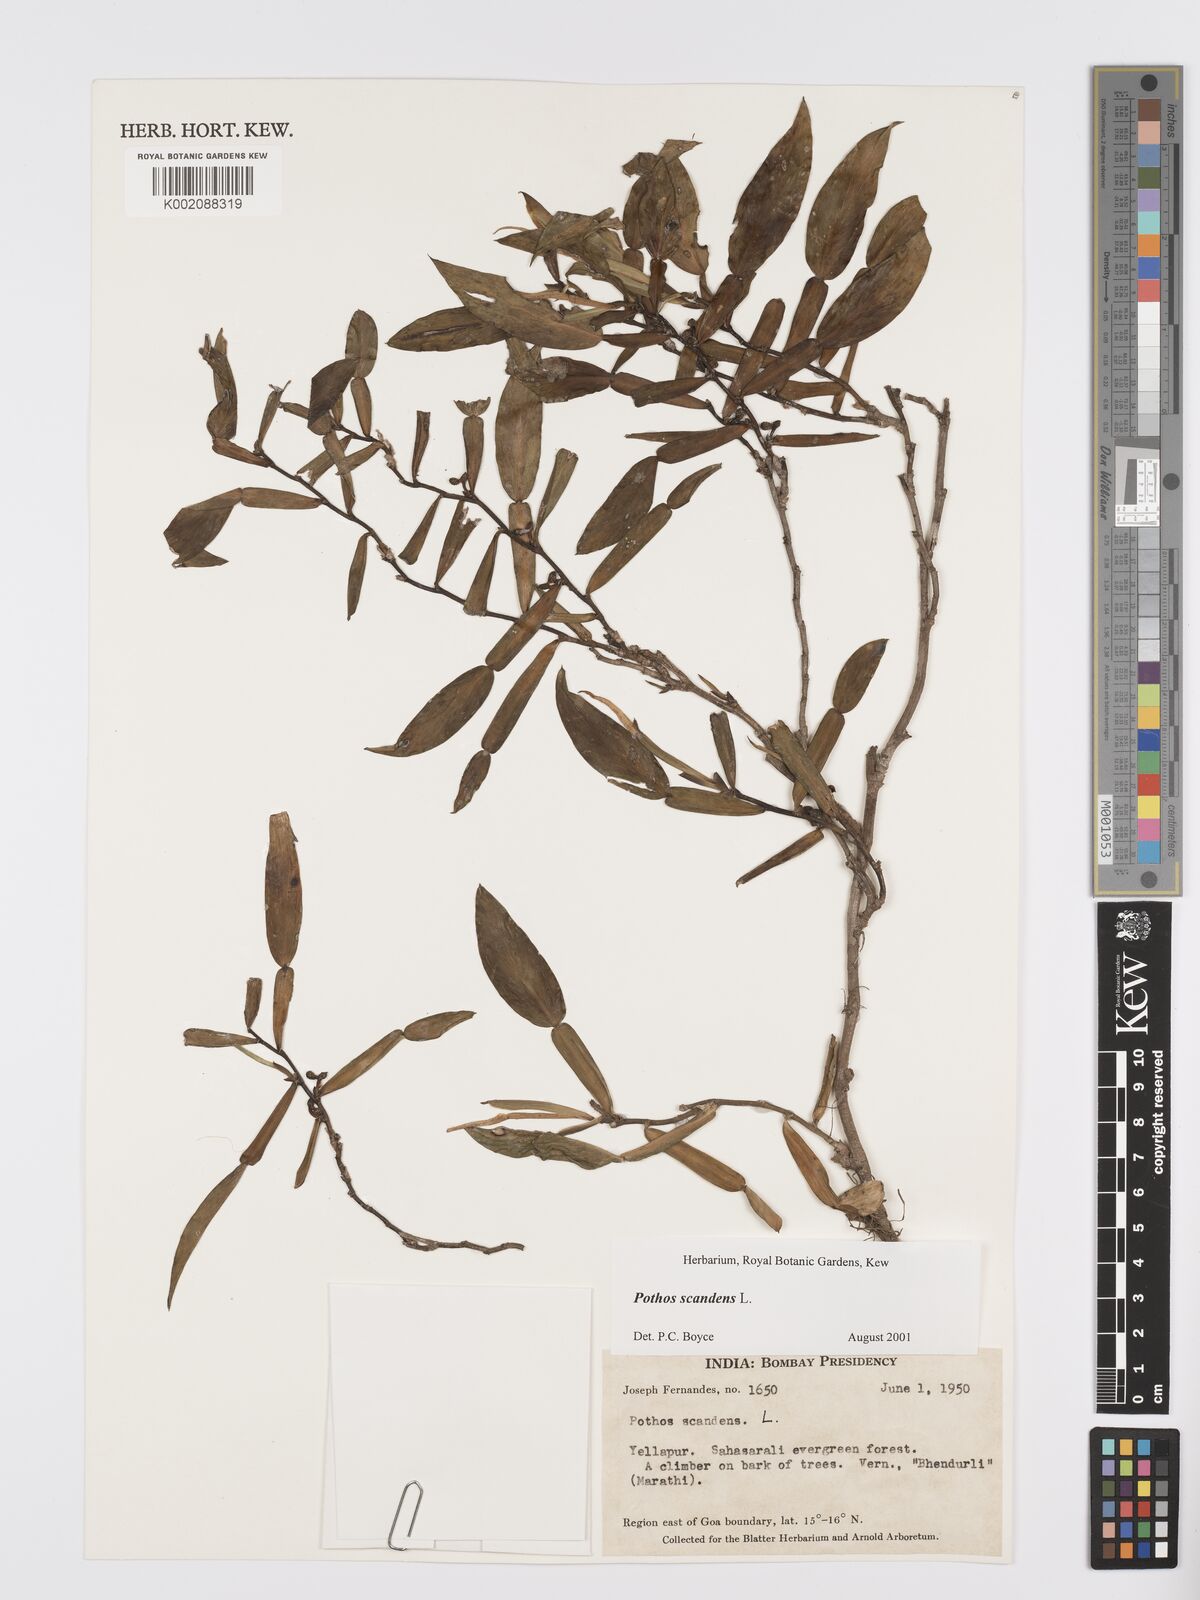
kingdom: Plantae
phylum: Tracheophyta
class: Liliopsida
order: Alismatales
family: Araceae
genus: Pothos
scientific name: Pothos scandens
